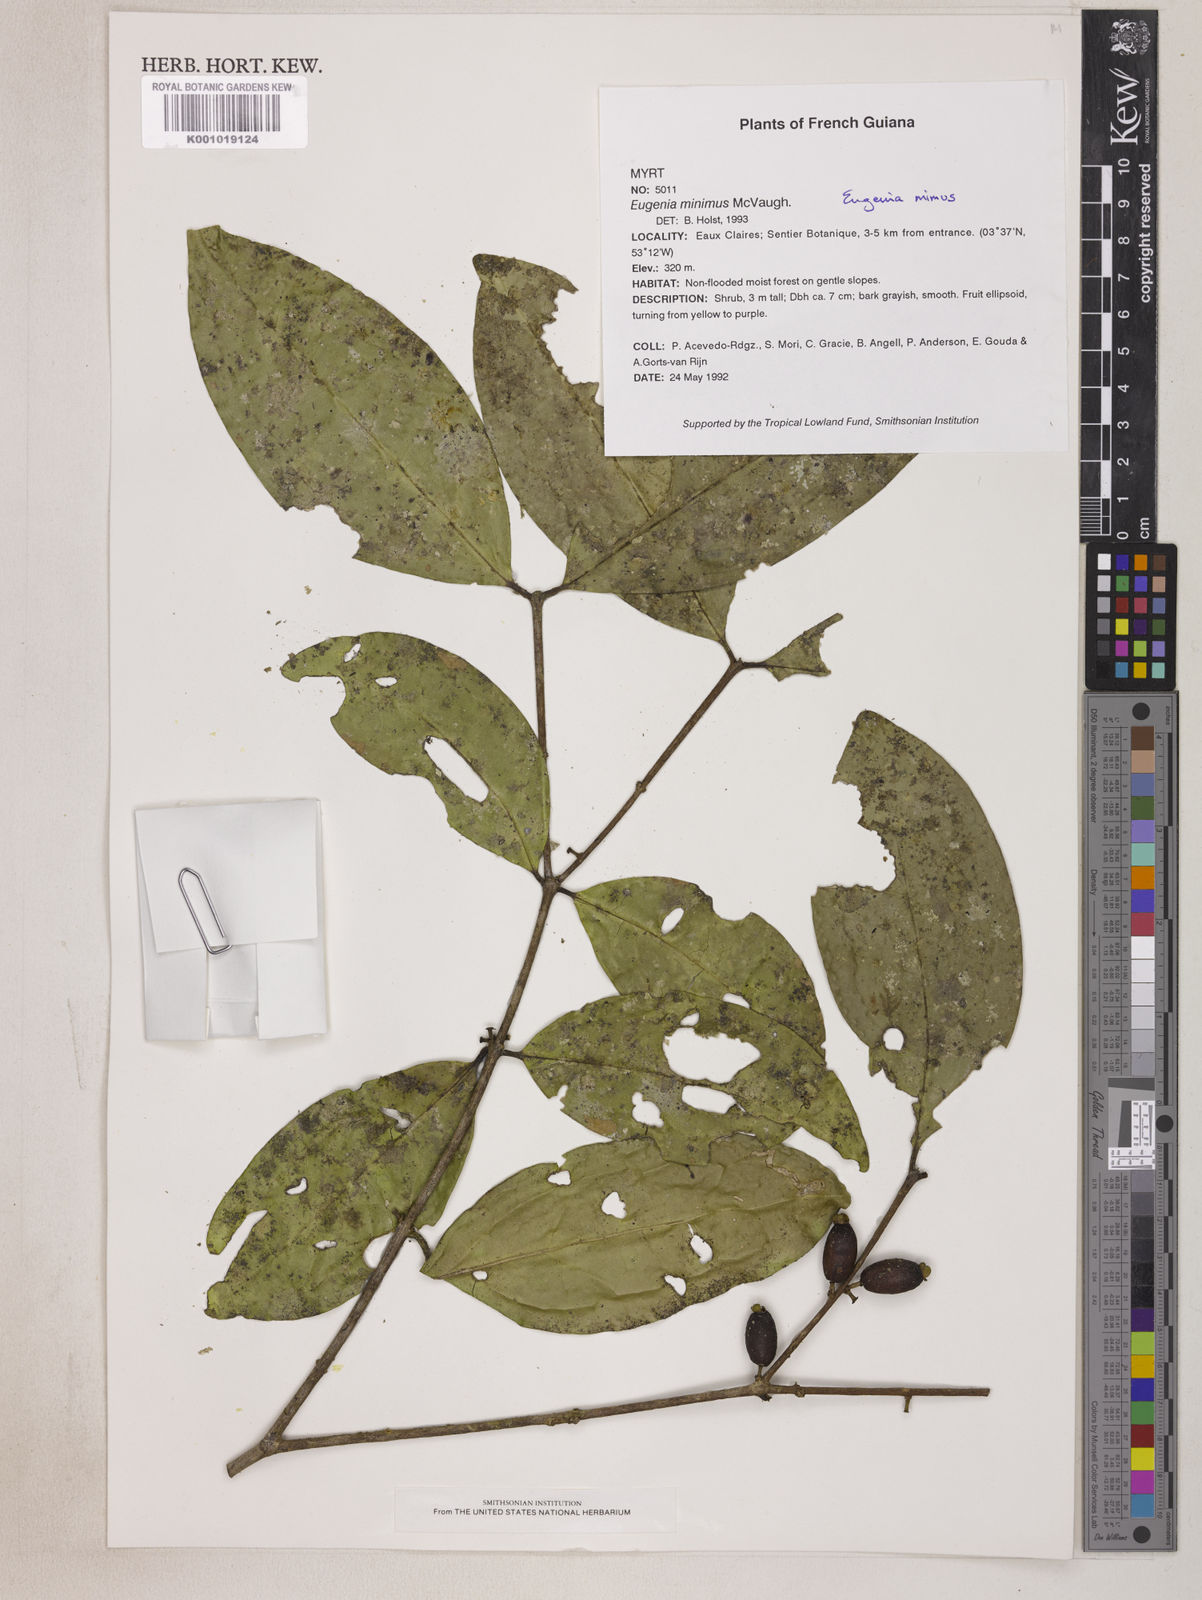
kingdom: Plantae
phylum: Tracheophyta
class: Magnoliopsida
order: Myrtales
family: Myrtaceae
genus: Eugenia
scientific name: Eugenia mimus
